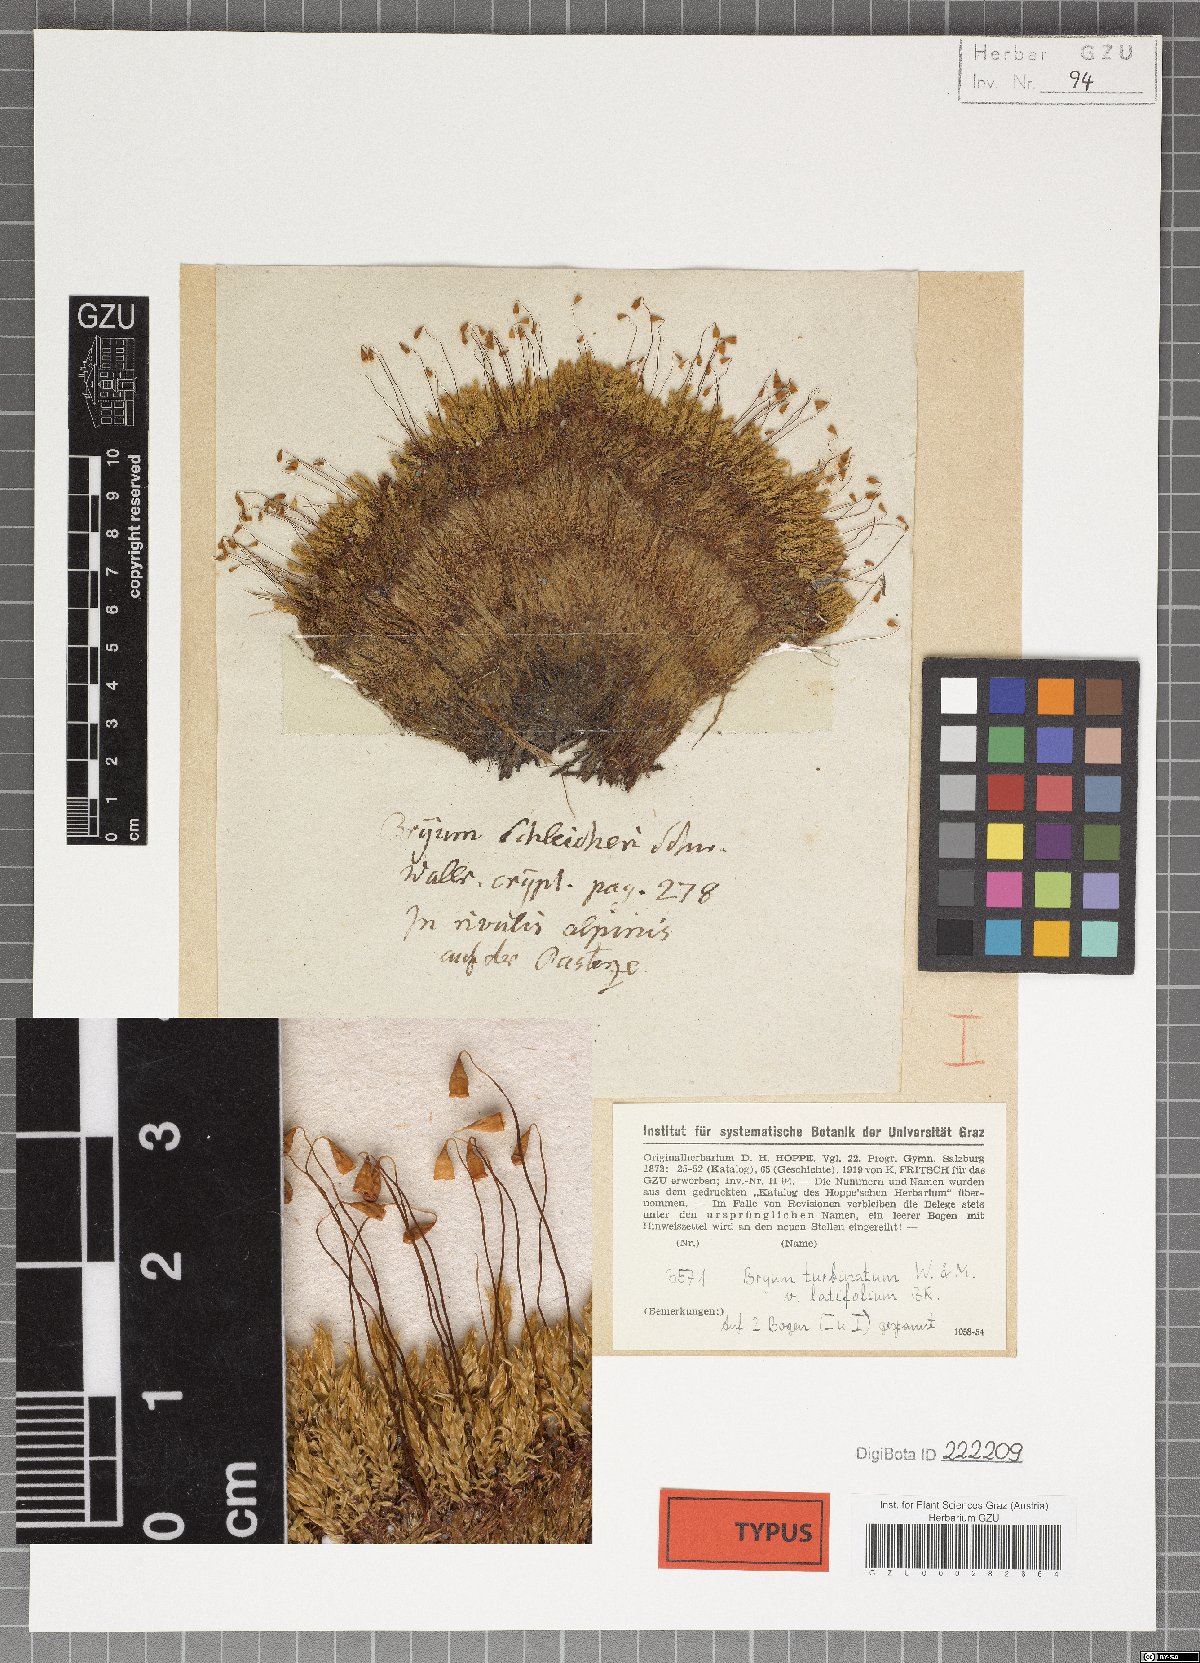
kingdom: Plantae
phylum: Bryophyta
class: Bryopsida
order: Bryales
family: Bryaceae
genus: Ptychostomum
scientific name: Ptychostomum schleicheri
